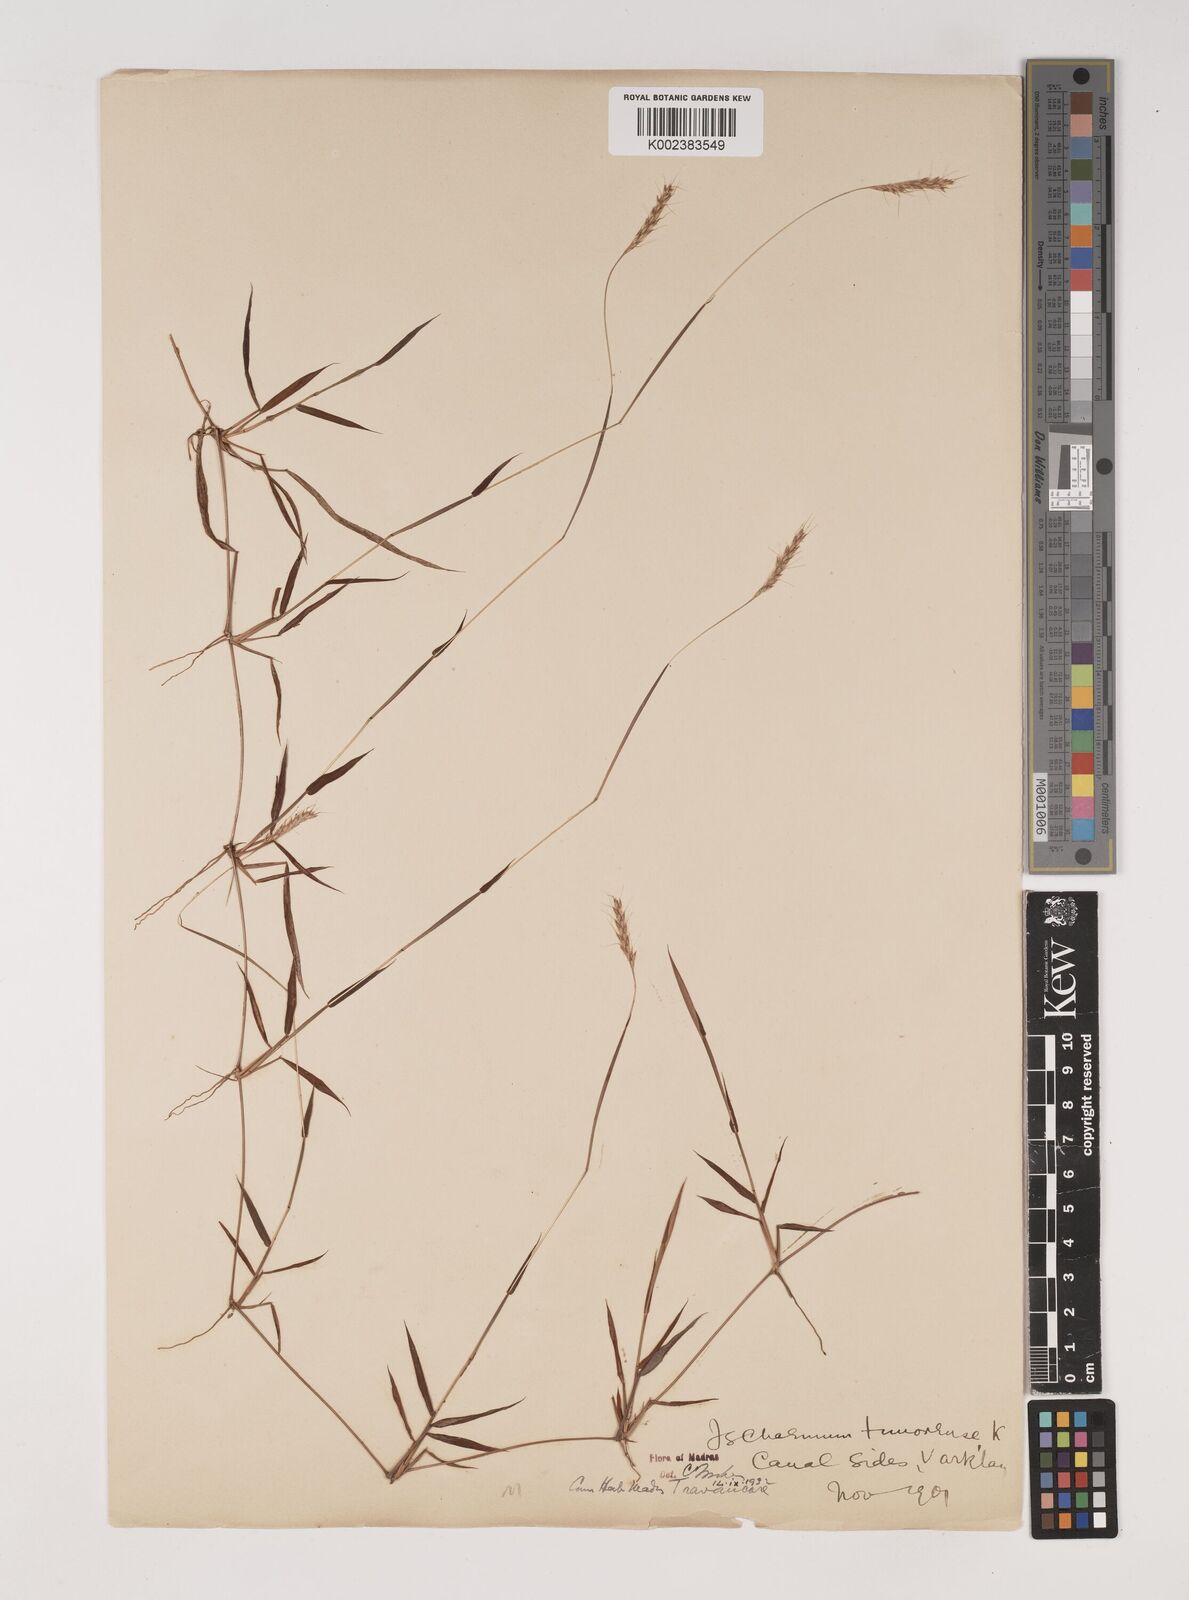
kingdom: Plantae
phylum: Tracheophyta
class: Liliopsida
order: Poales
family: Poaceae
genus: Ischaemum
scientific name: Ischaemum timorense
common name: Stalkleaf murainagrass
